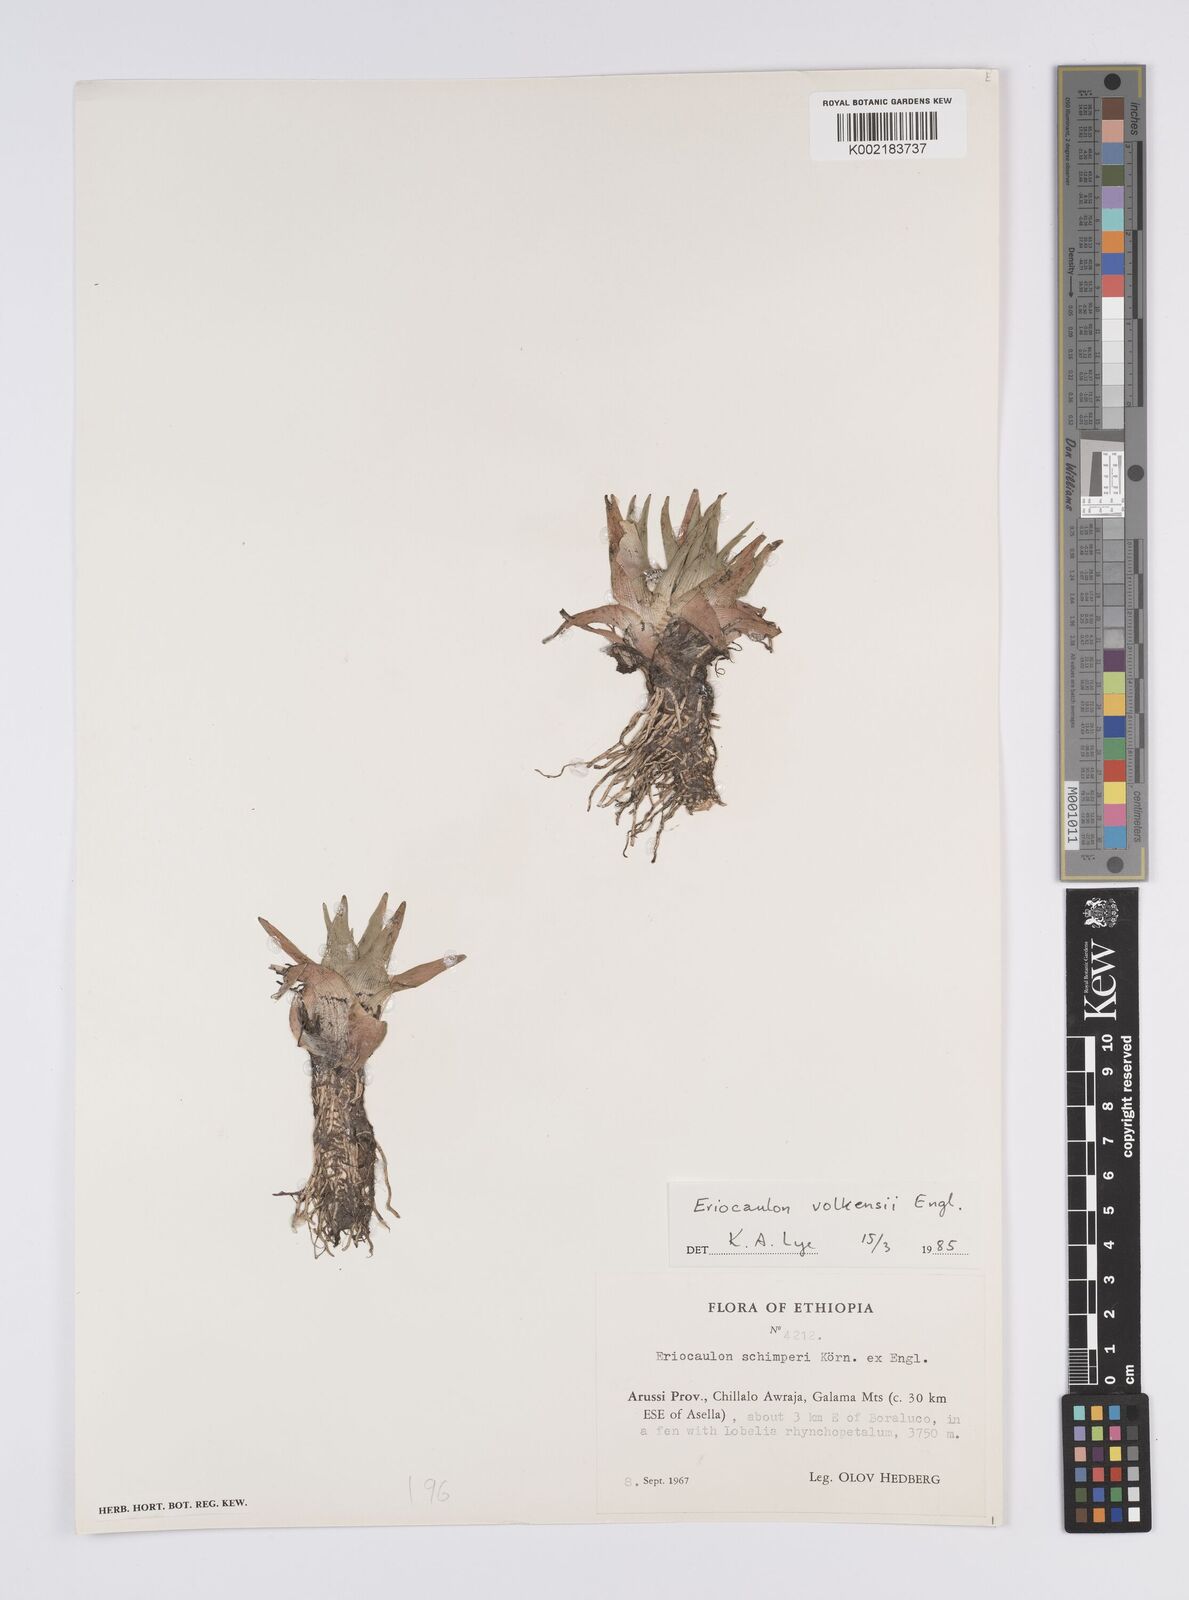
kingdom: Plantae
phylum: Tracheophyta
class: Liliopsida
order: Poales
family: Eriocaulaceae
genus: Eriocaulon
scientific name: Eriocaulon schimperi
